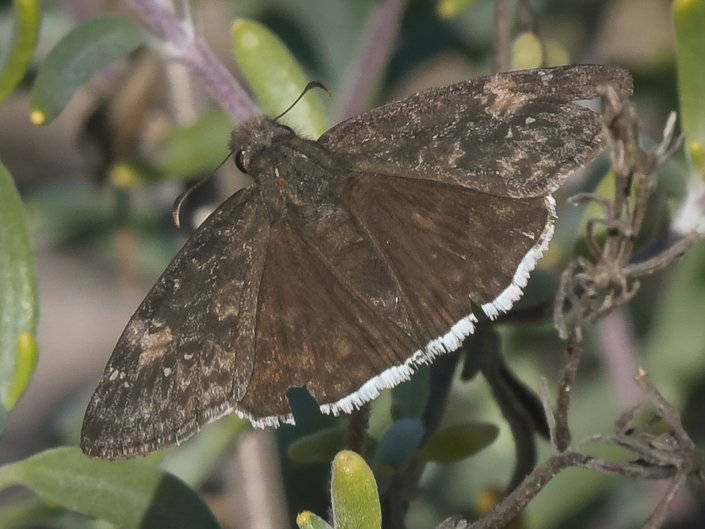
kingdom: Animalia
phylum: Arthropoda
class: Insecta
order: Lepidoptera
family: Hesperiidae
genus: Erynnis
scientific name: Erynnis funeralis
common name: Funereal Duskywing
